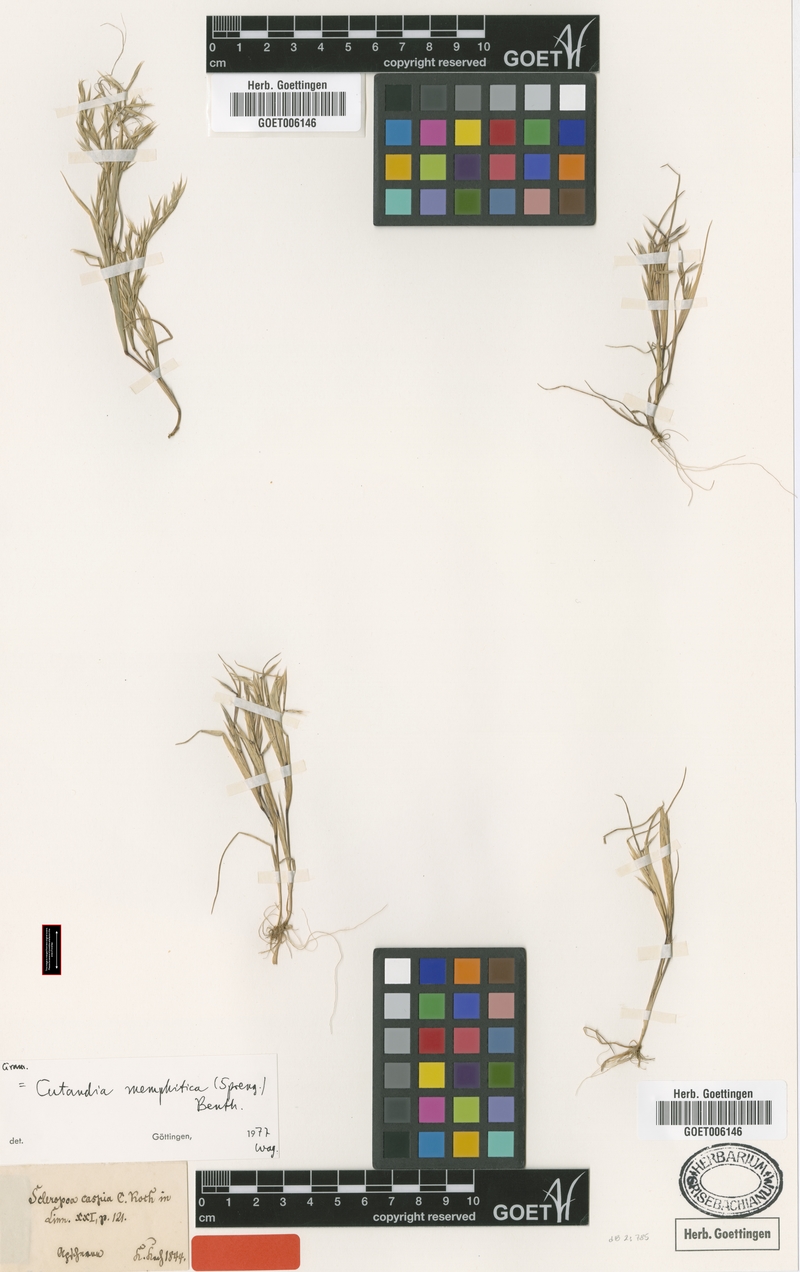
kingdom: Plantae
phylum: Tracheophyta
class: Liliopsida
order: Poales
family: Poaceae
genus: Cutandia
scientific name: Cutandia memphitica
